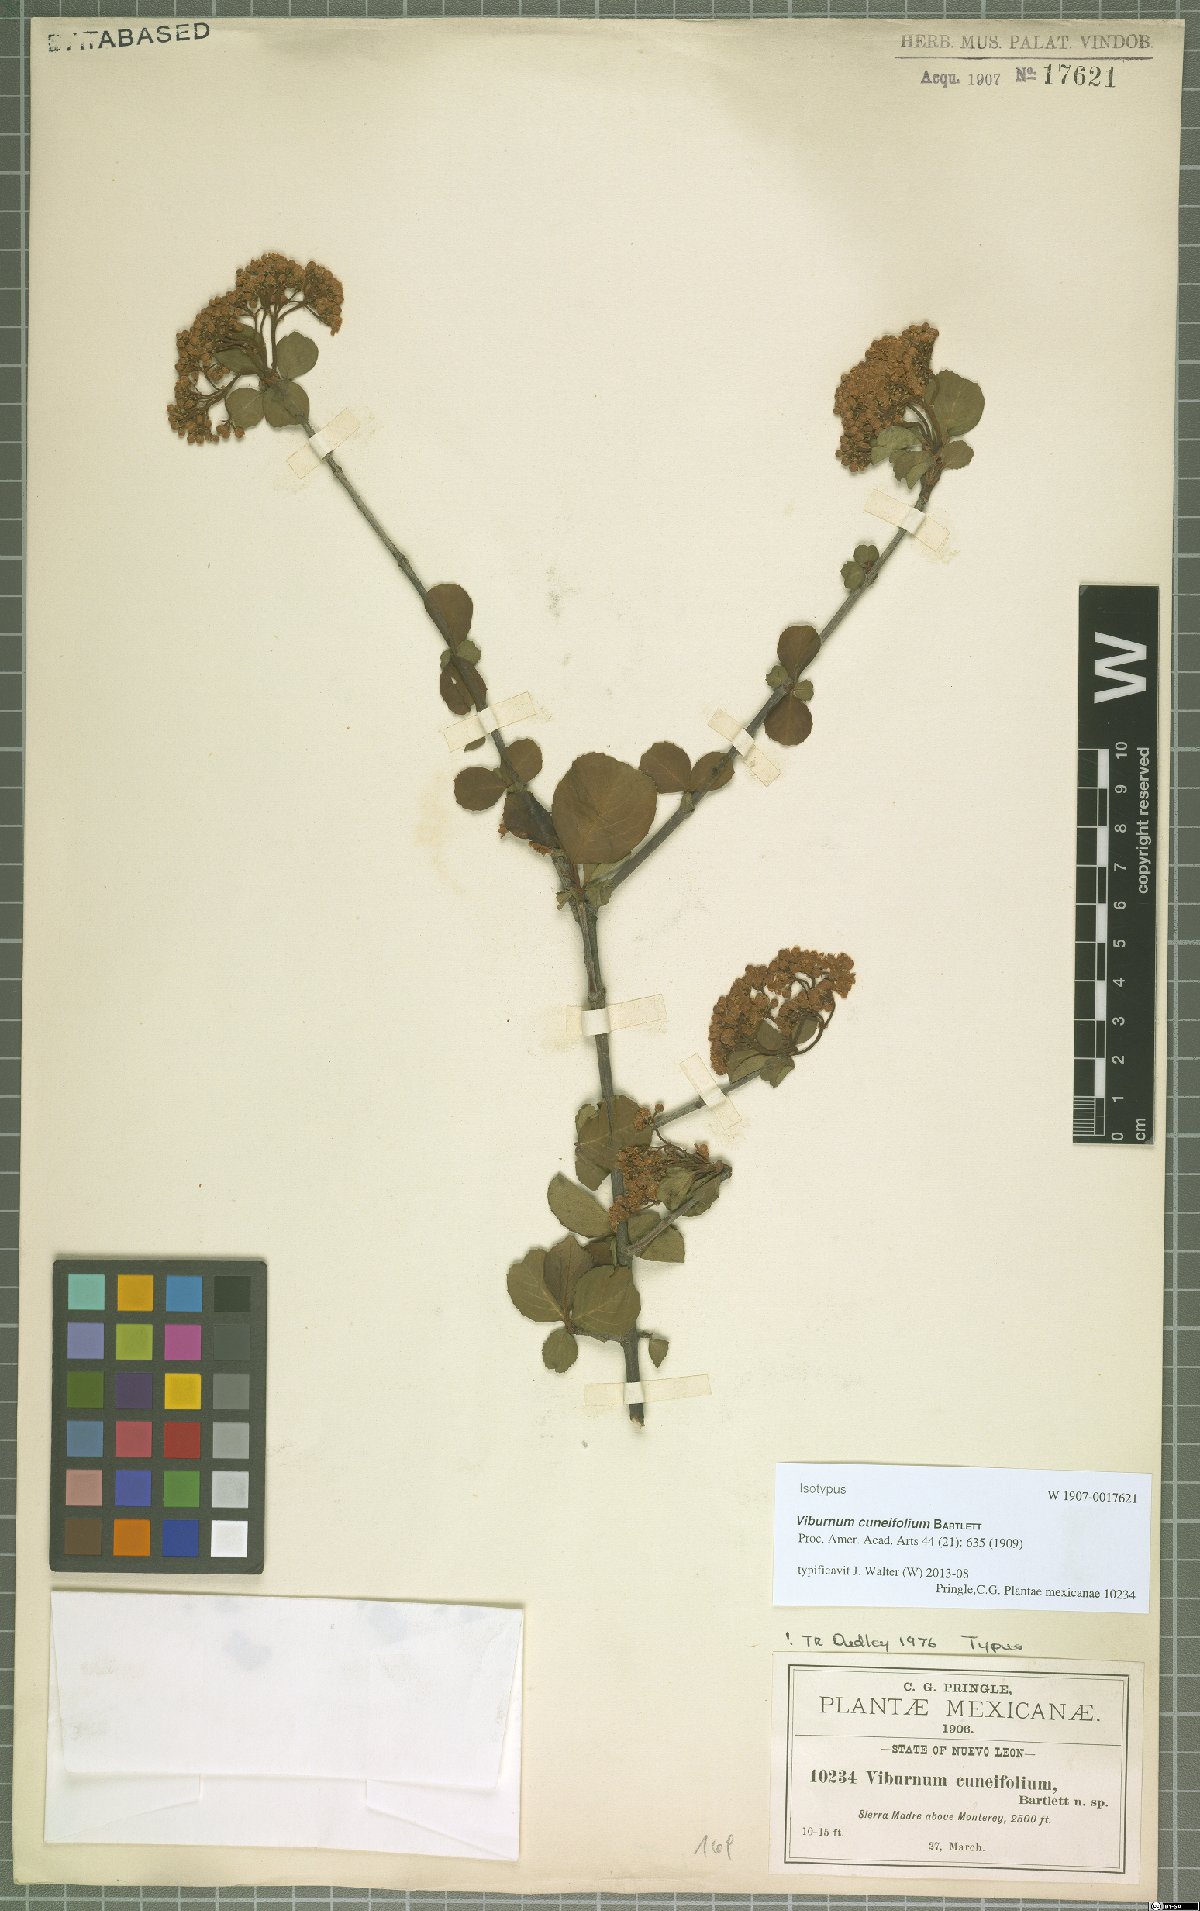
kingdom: Plantae
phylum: Tracheophyta
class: Magnoliopsida
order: Dipsacales
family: Viburnaceae
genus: Viburnum
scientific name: Viburnum elatum
